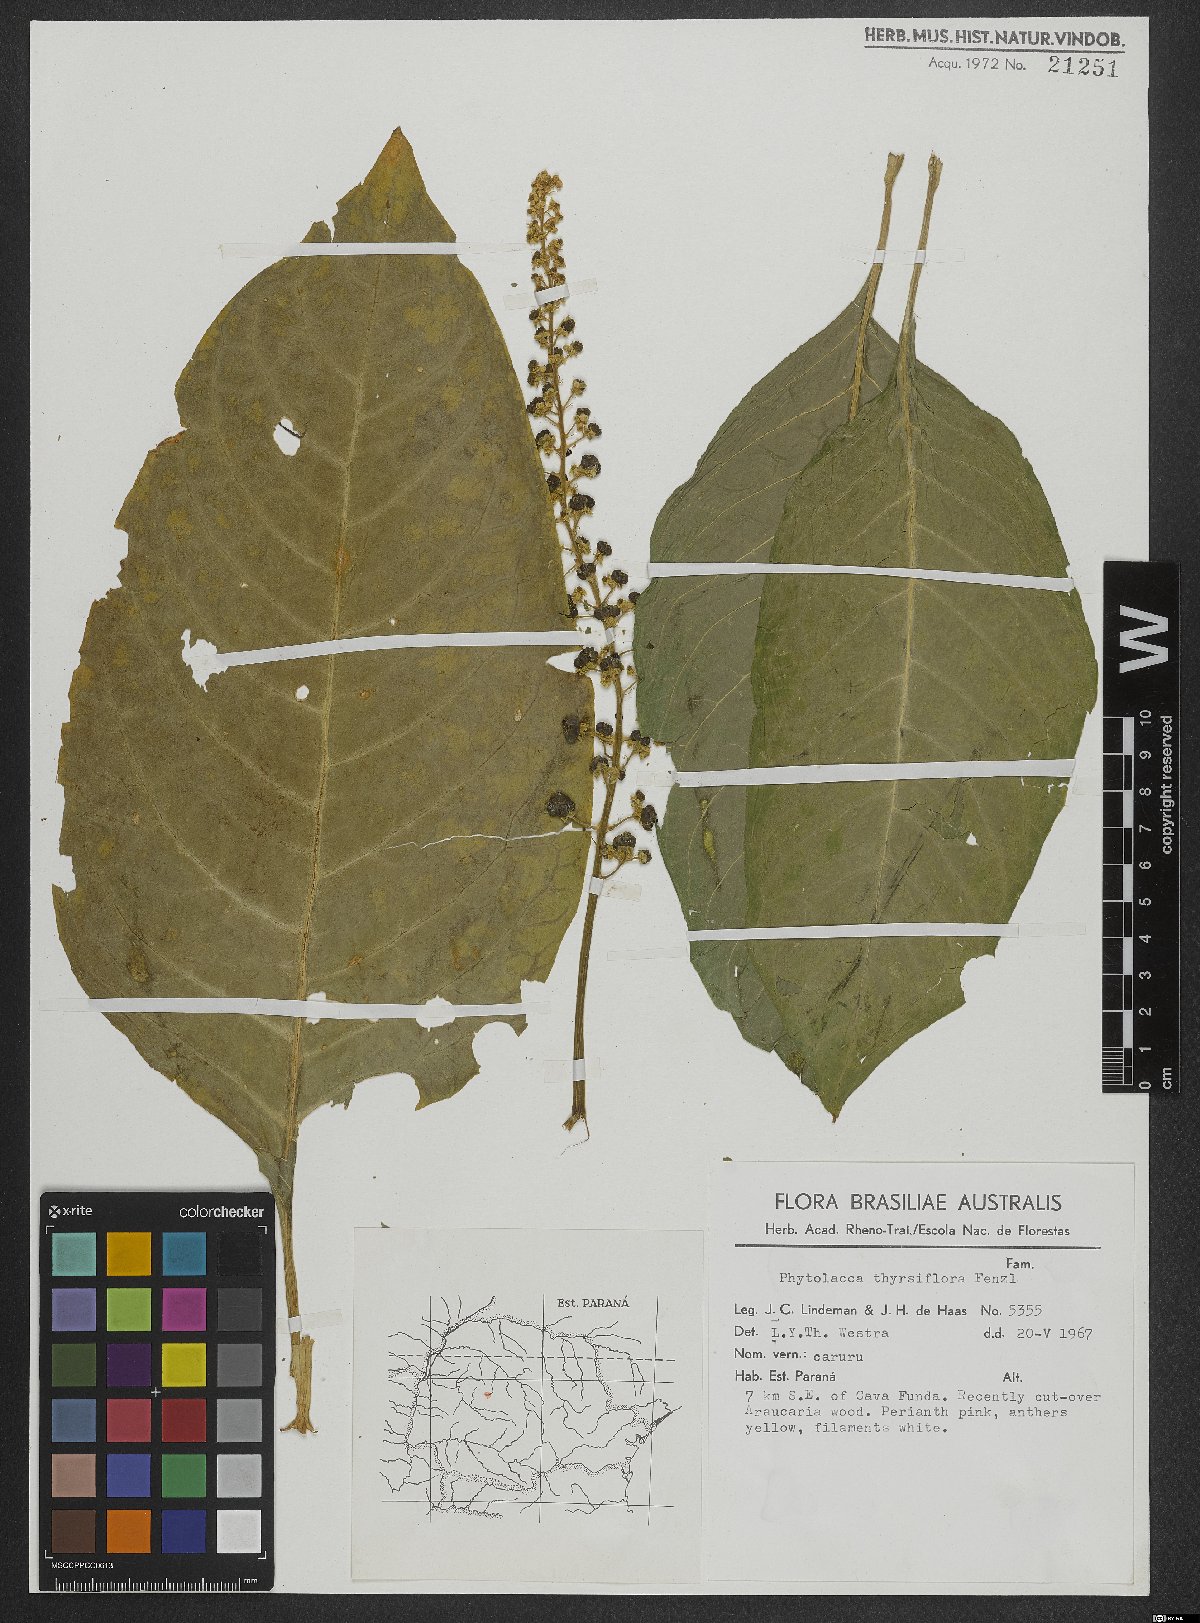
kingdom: Plantae
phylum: Tracheophyta
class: Magnoliopsida
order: Caryophyllales
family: Phytolaccaceae
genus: Phytolacca
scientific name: Phytolacca thyrsiflora
